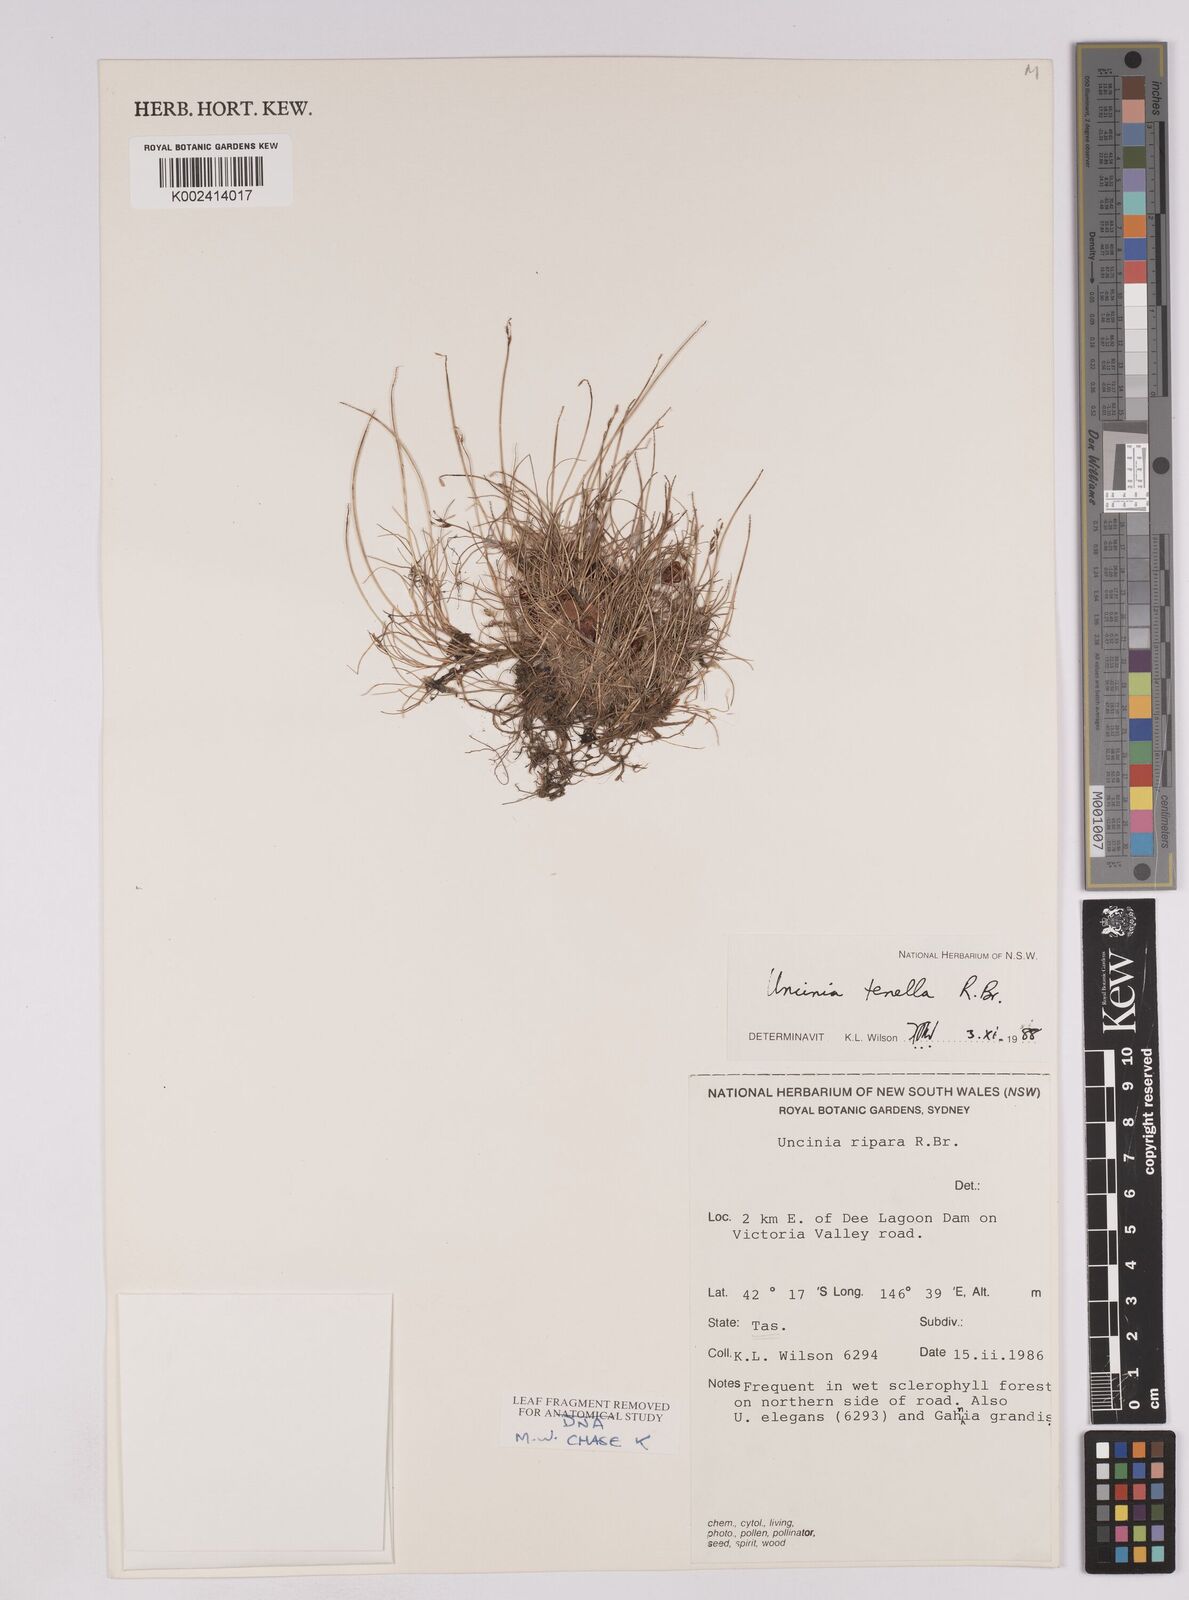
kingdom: Plantae
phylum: Tracheophyta
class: Liliopsida
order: Poales
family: Cyperaceae
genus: Carex
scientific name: Carex austrotenella
